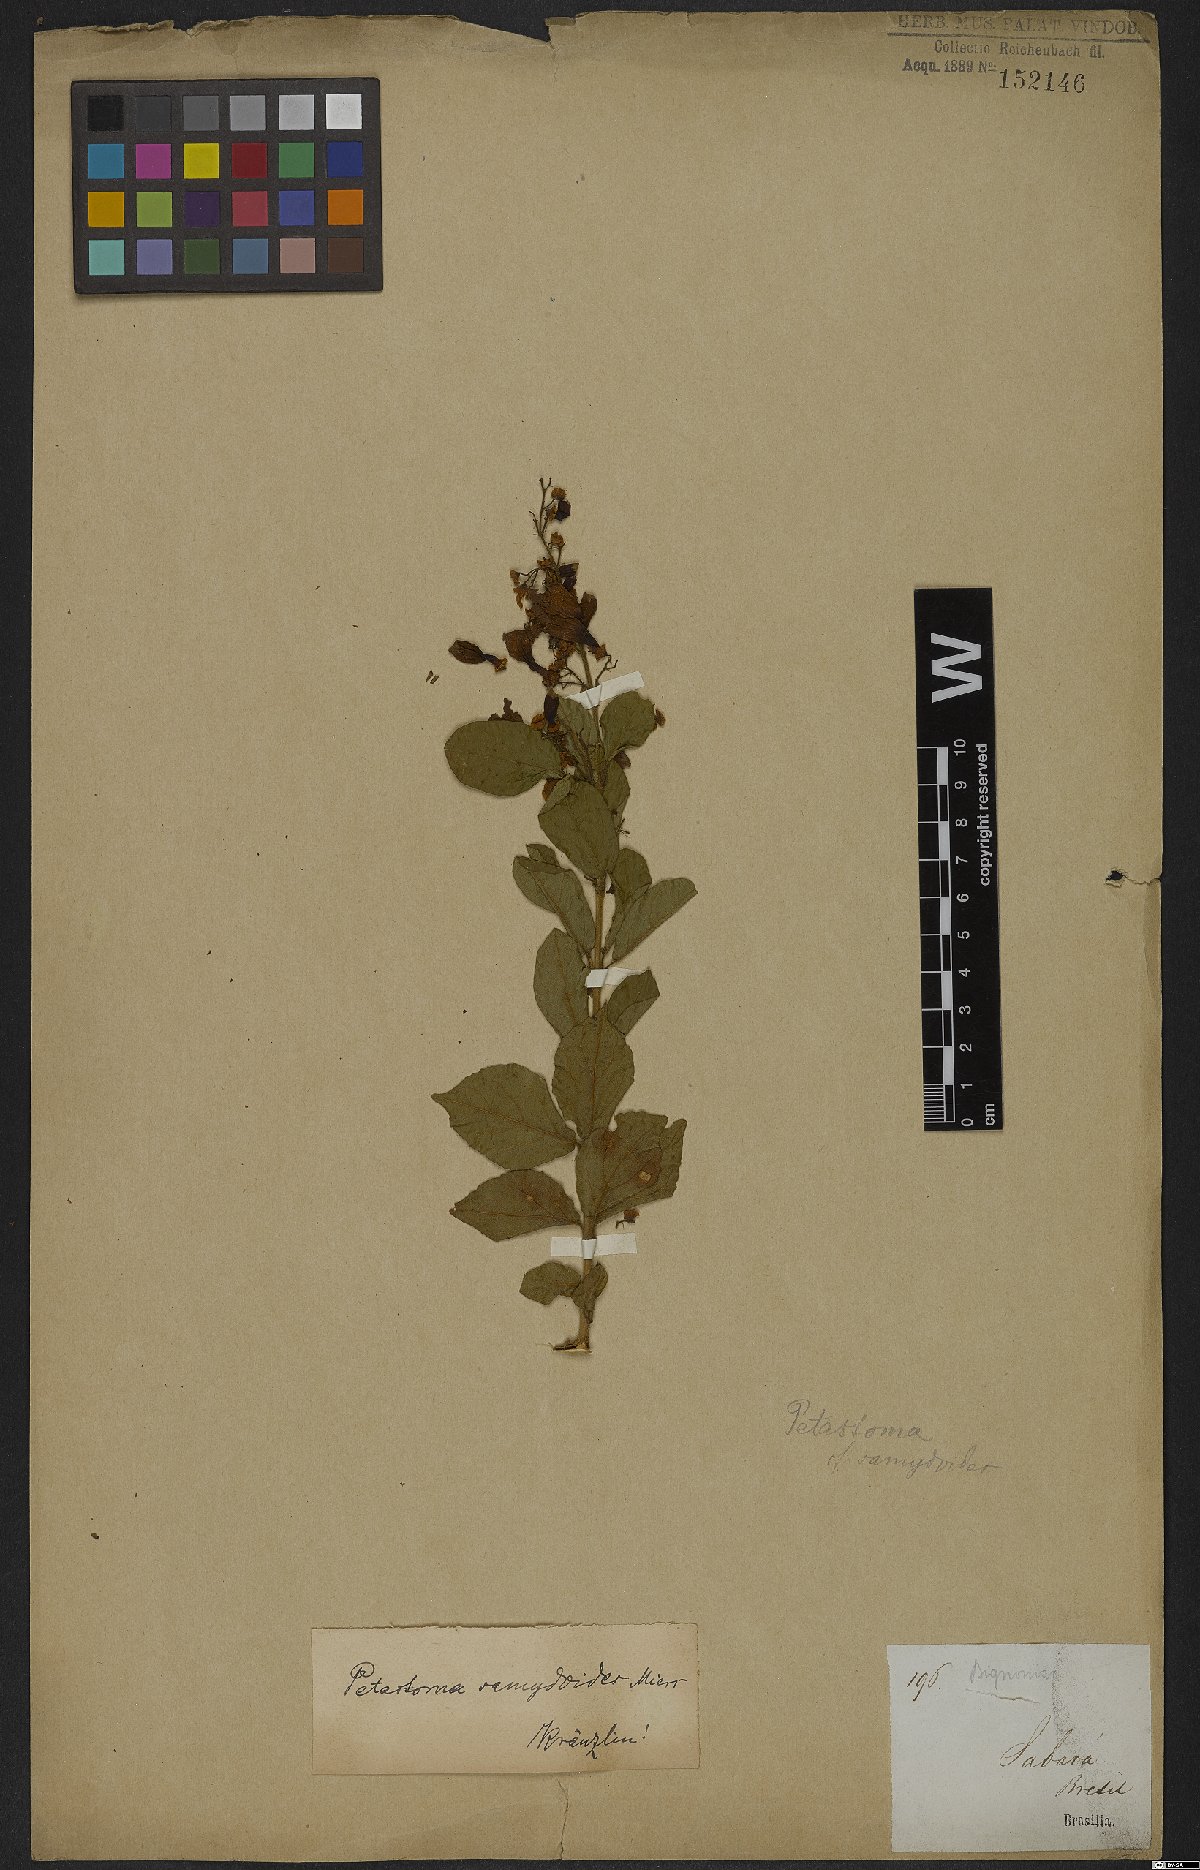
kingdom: Plantae
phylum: Tracheophyta
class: Magnoliopsida
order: Lamiales
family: Bignoniaceae
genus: Fridericia
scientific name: Fridericia samydoides
